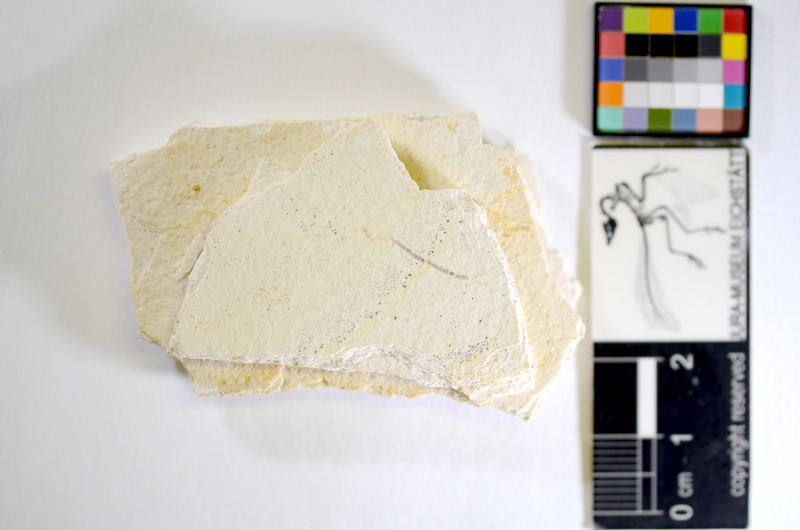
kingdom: Animalia
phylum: Chordata
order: Salmoniformes
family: Orthogonikleithridae
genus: Orthogonikleithrus
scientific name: Orthogonikleithrus hoelli
